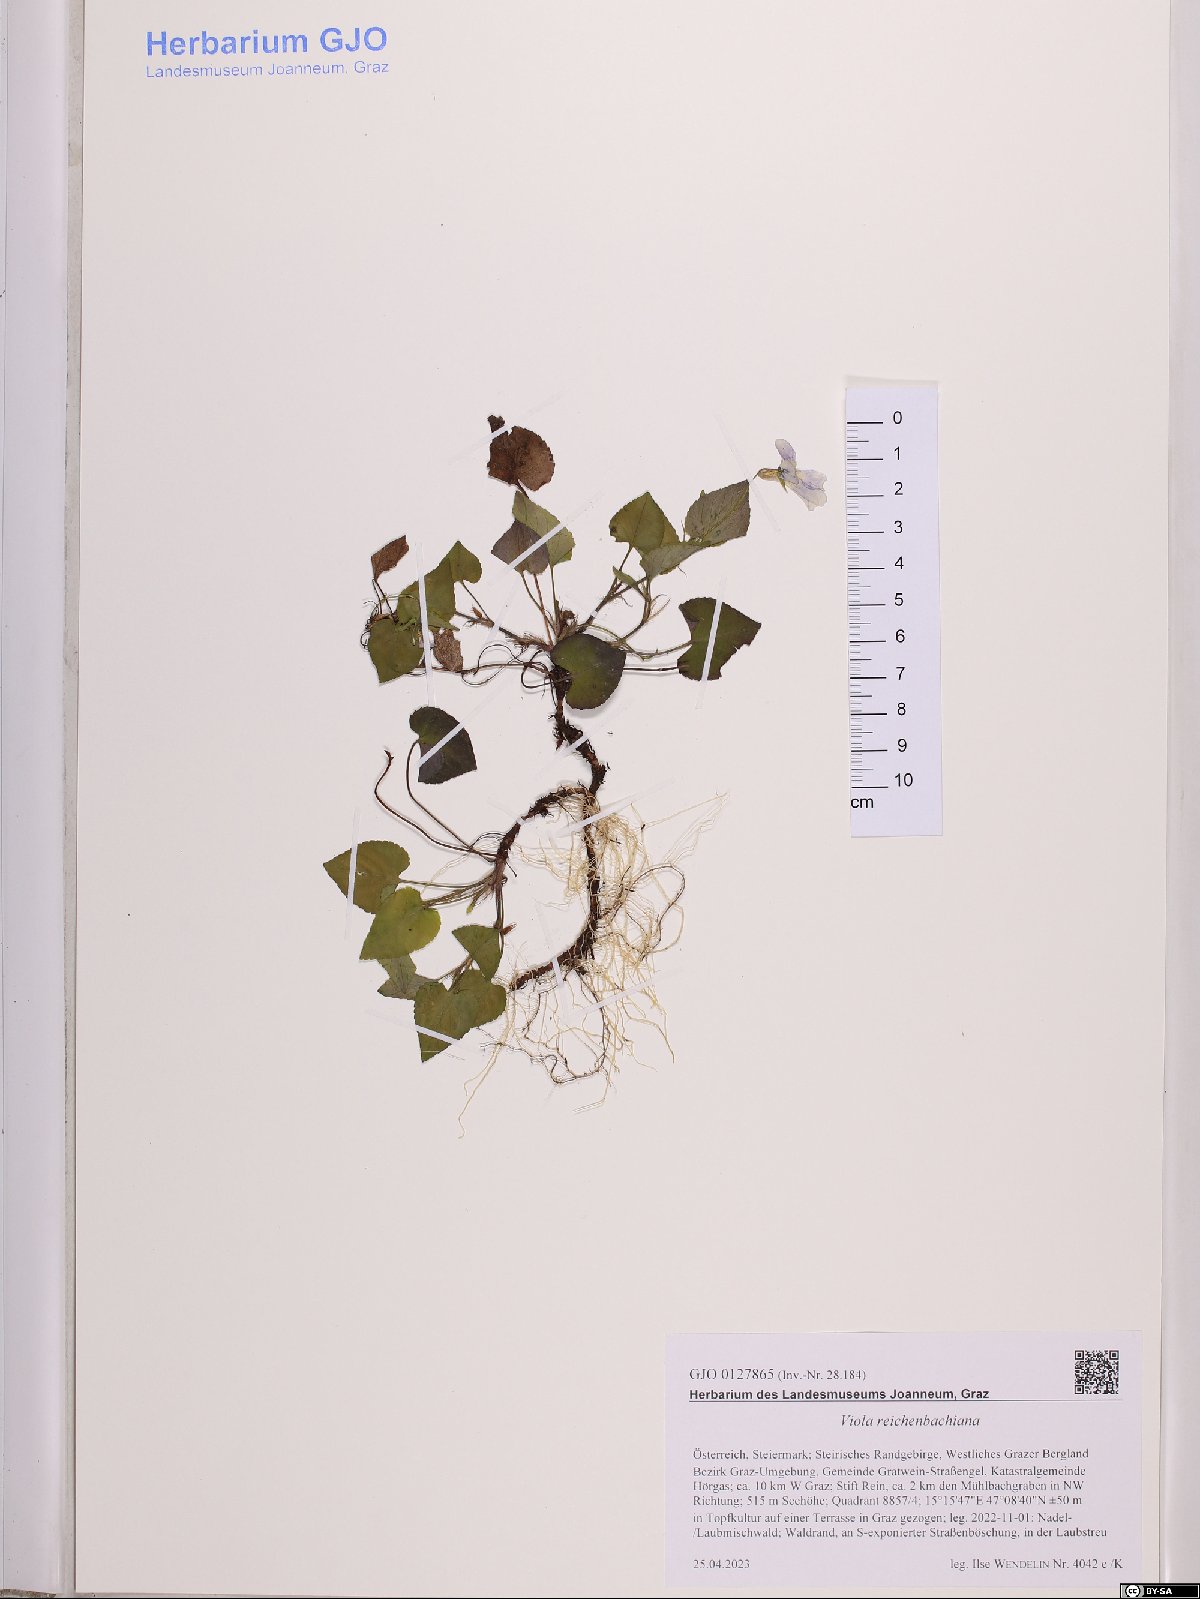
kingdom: Plantae
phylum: Tracheophyta
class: Magnoliopsida
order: Malpighiales
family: Violaceae
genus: Viola
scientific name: Viola reichenbachiana
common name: Early dog-violet
